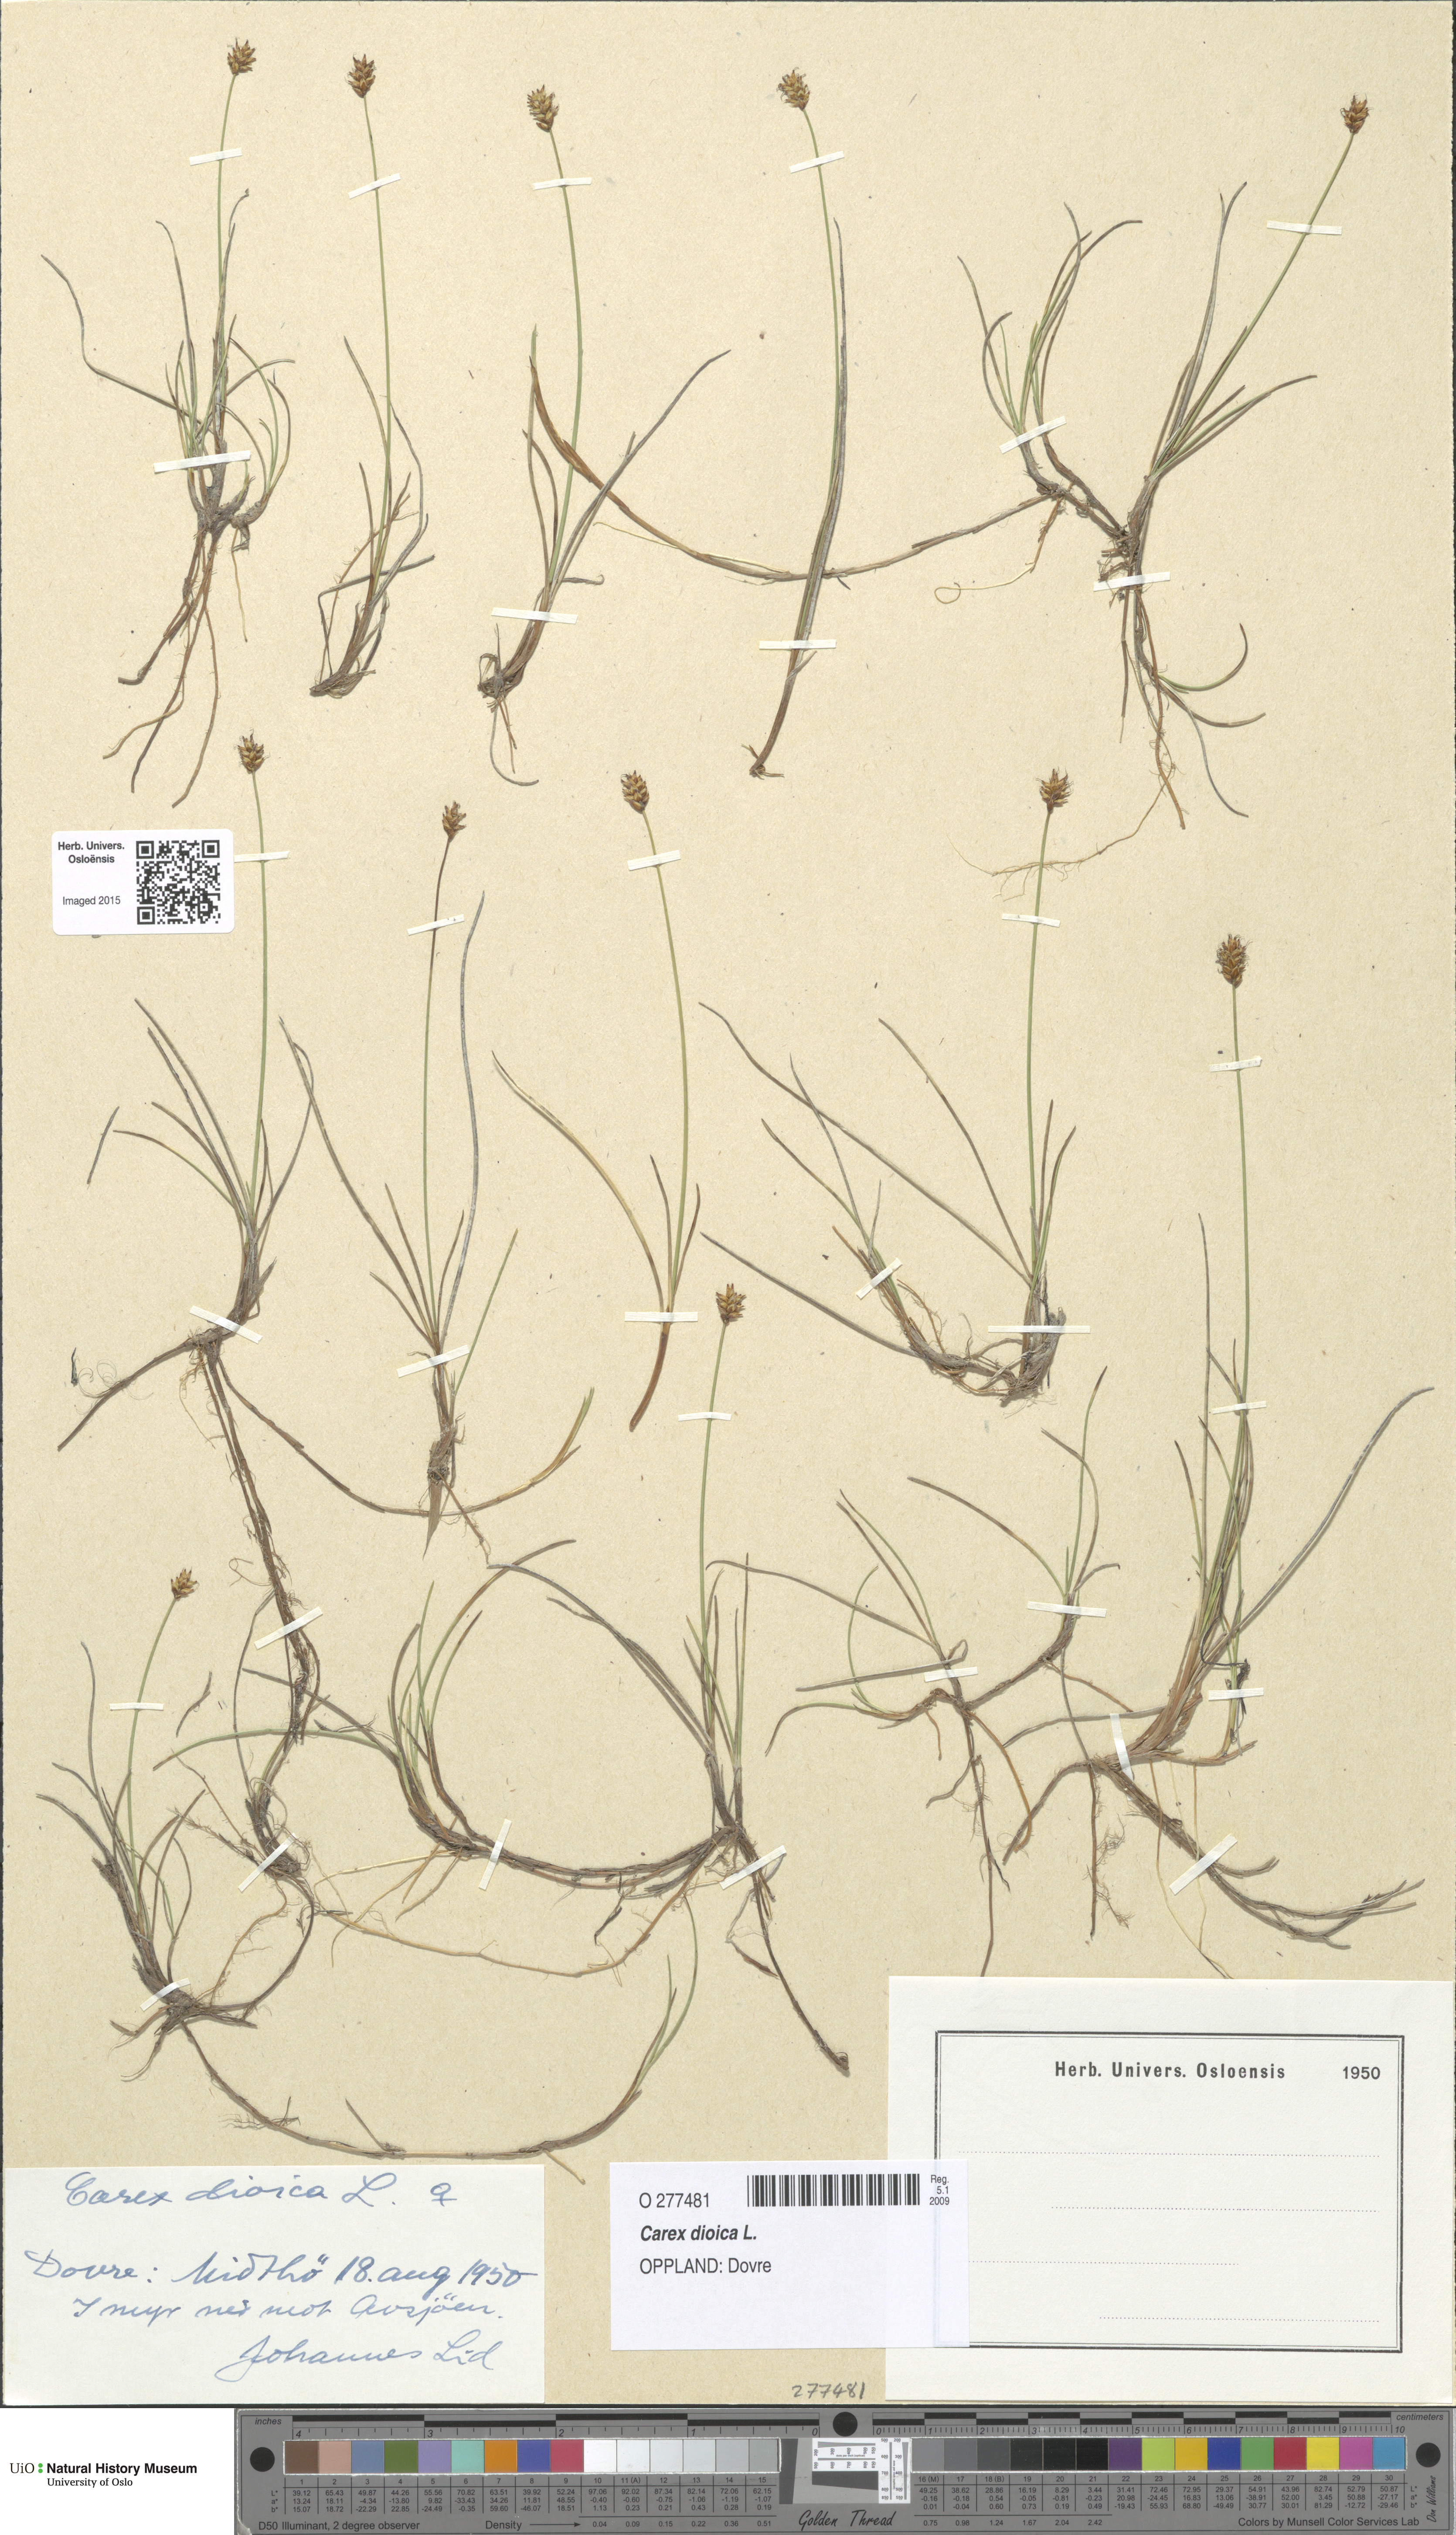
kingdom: Plantae
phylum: Tracheophyta
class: Liliopsida
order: Poales
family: Cyperaceae
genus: Carex
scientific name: Carex dioica
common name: Dioecious sedge
